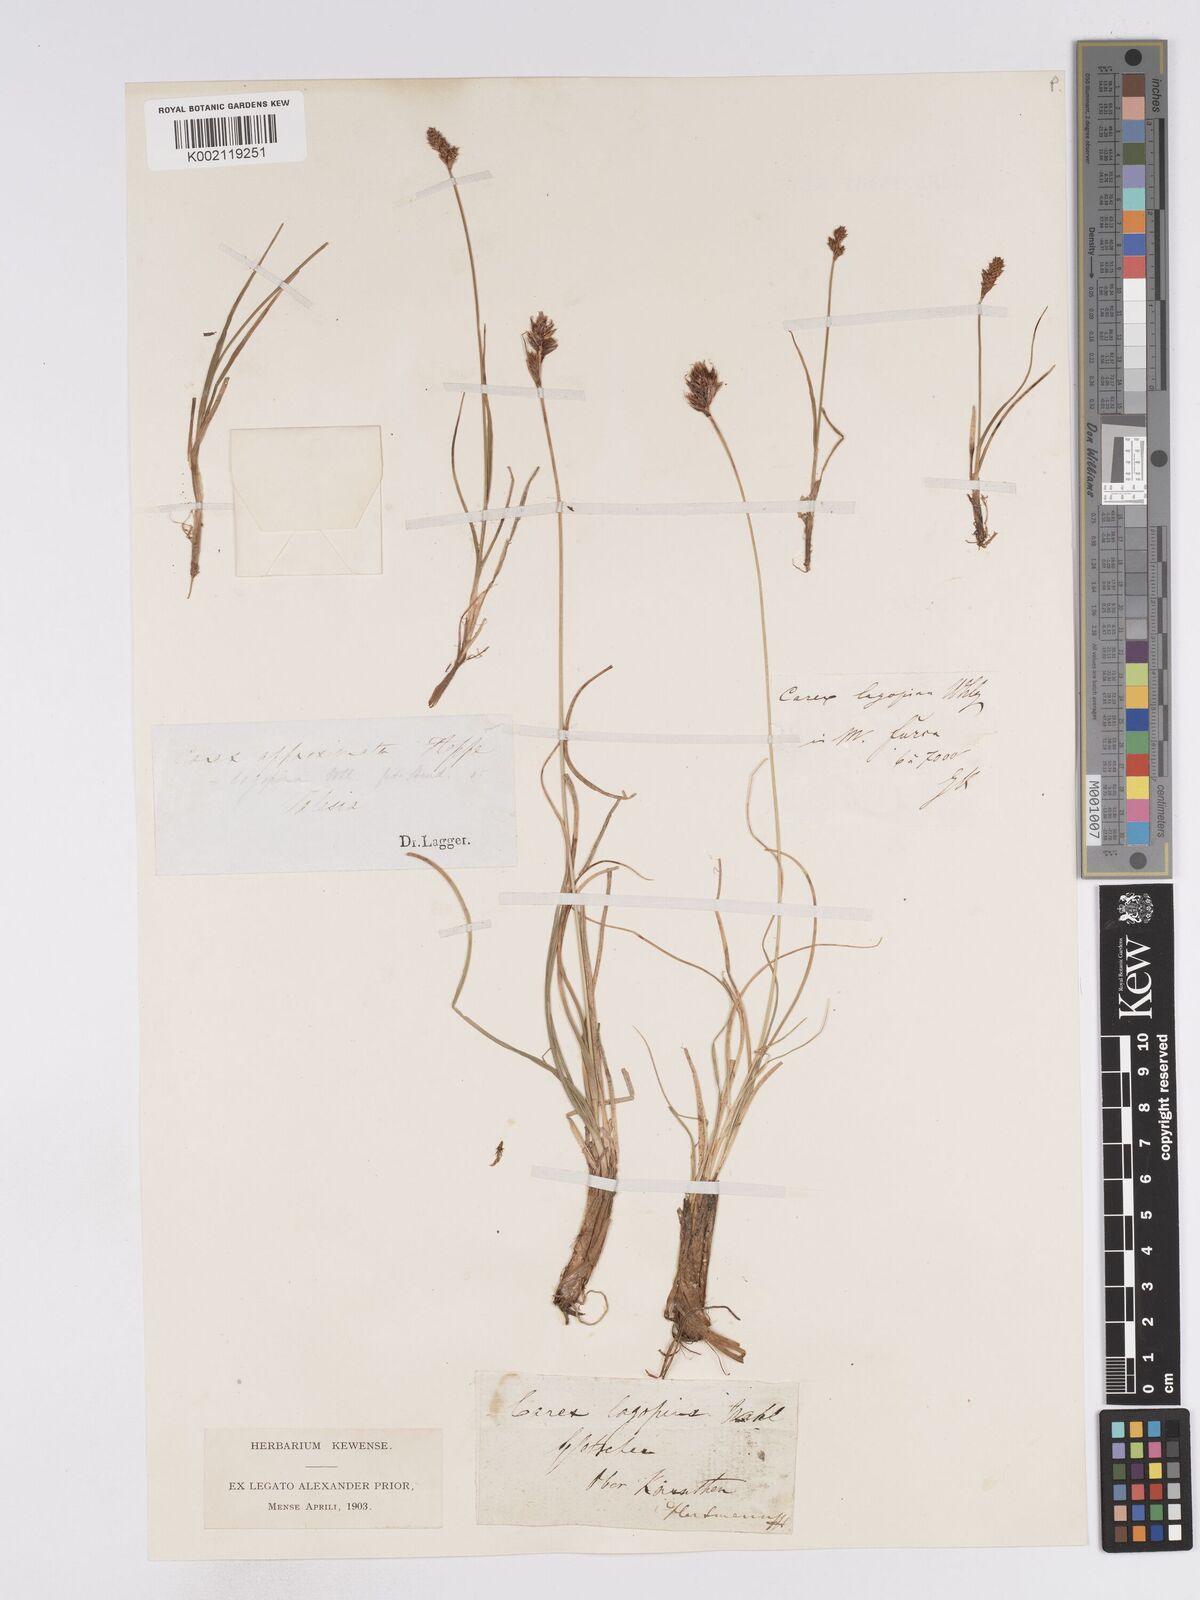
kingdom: Plantae
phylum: Tracheophyta
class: Liliopsida
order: Poales
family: Cyperaceae
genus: Carex
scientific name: Carex lachenalii
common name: Hare's-foot sedge
